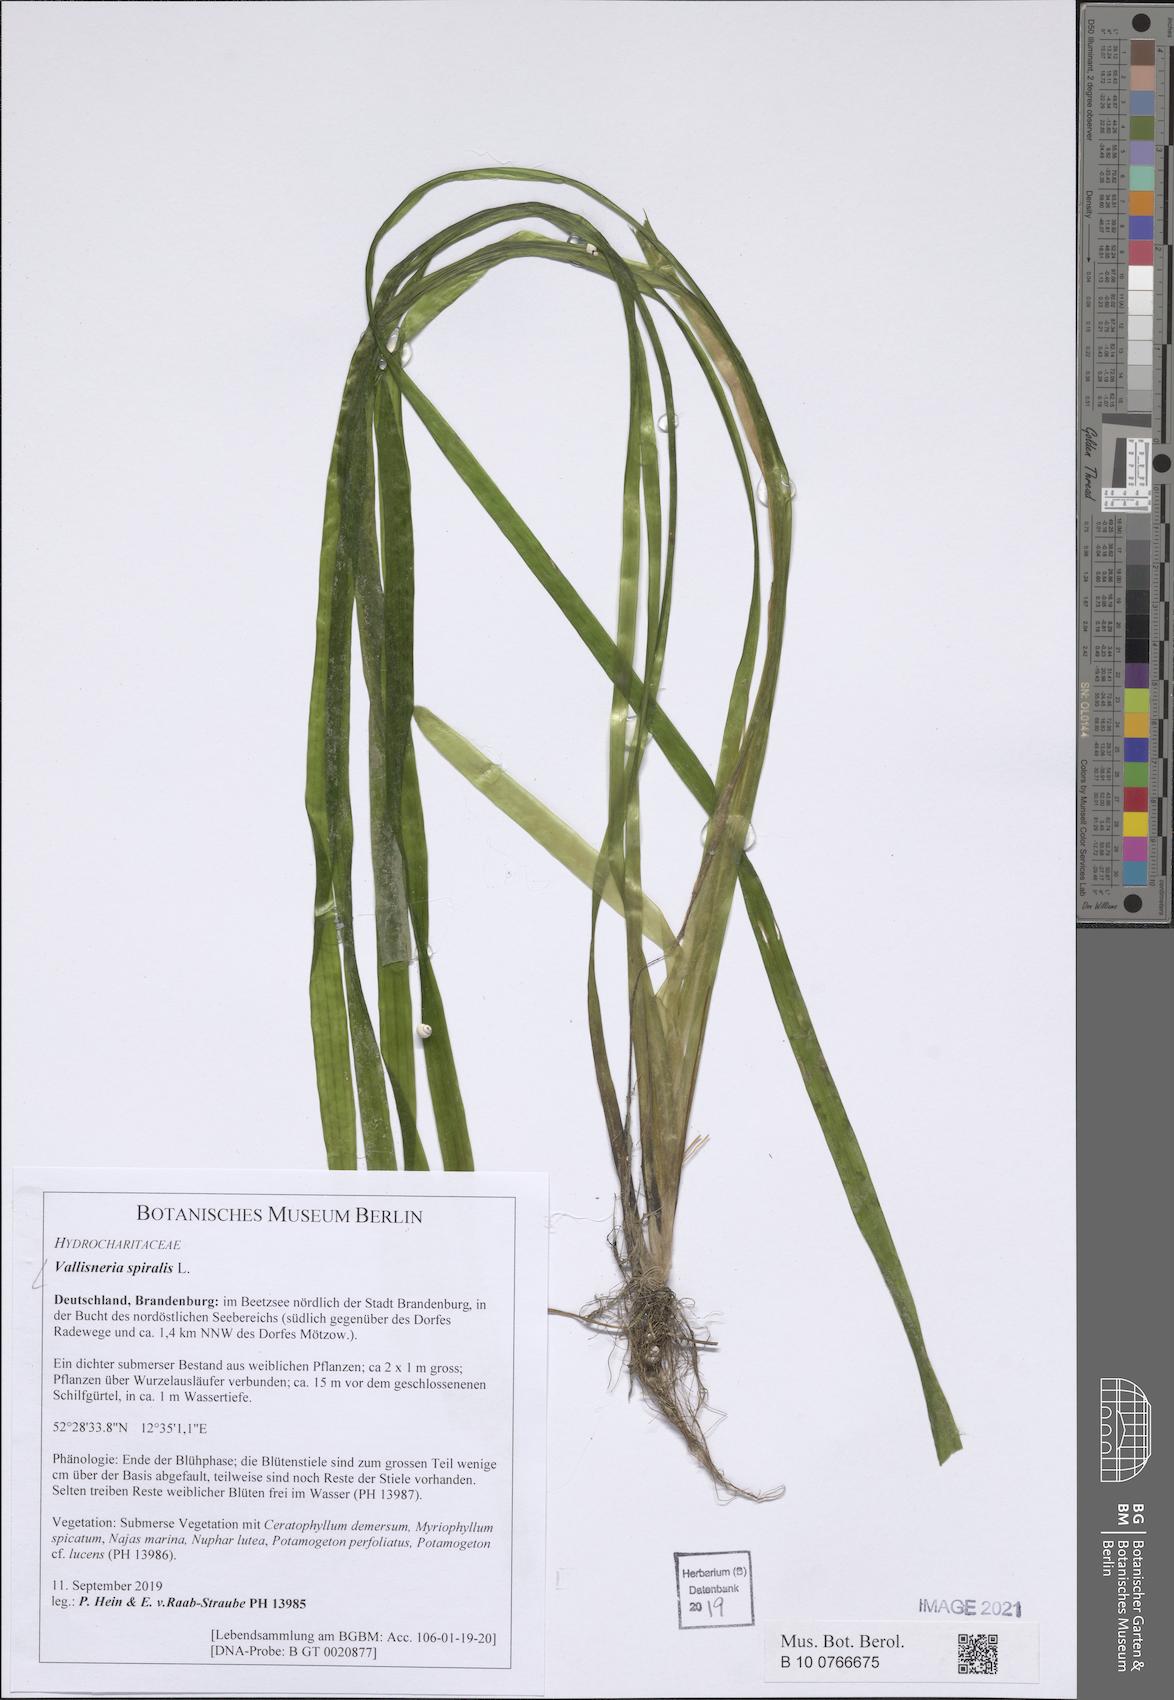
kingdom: Plantae
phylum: Tracheophyta
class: Liliopsida
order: Alismatales
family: Hydrocharitaceae
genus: Vallisneria
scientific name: Vallisneria spiralis
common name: Tapegrass
